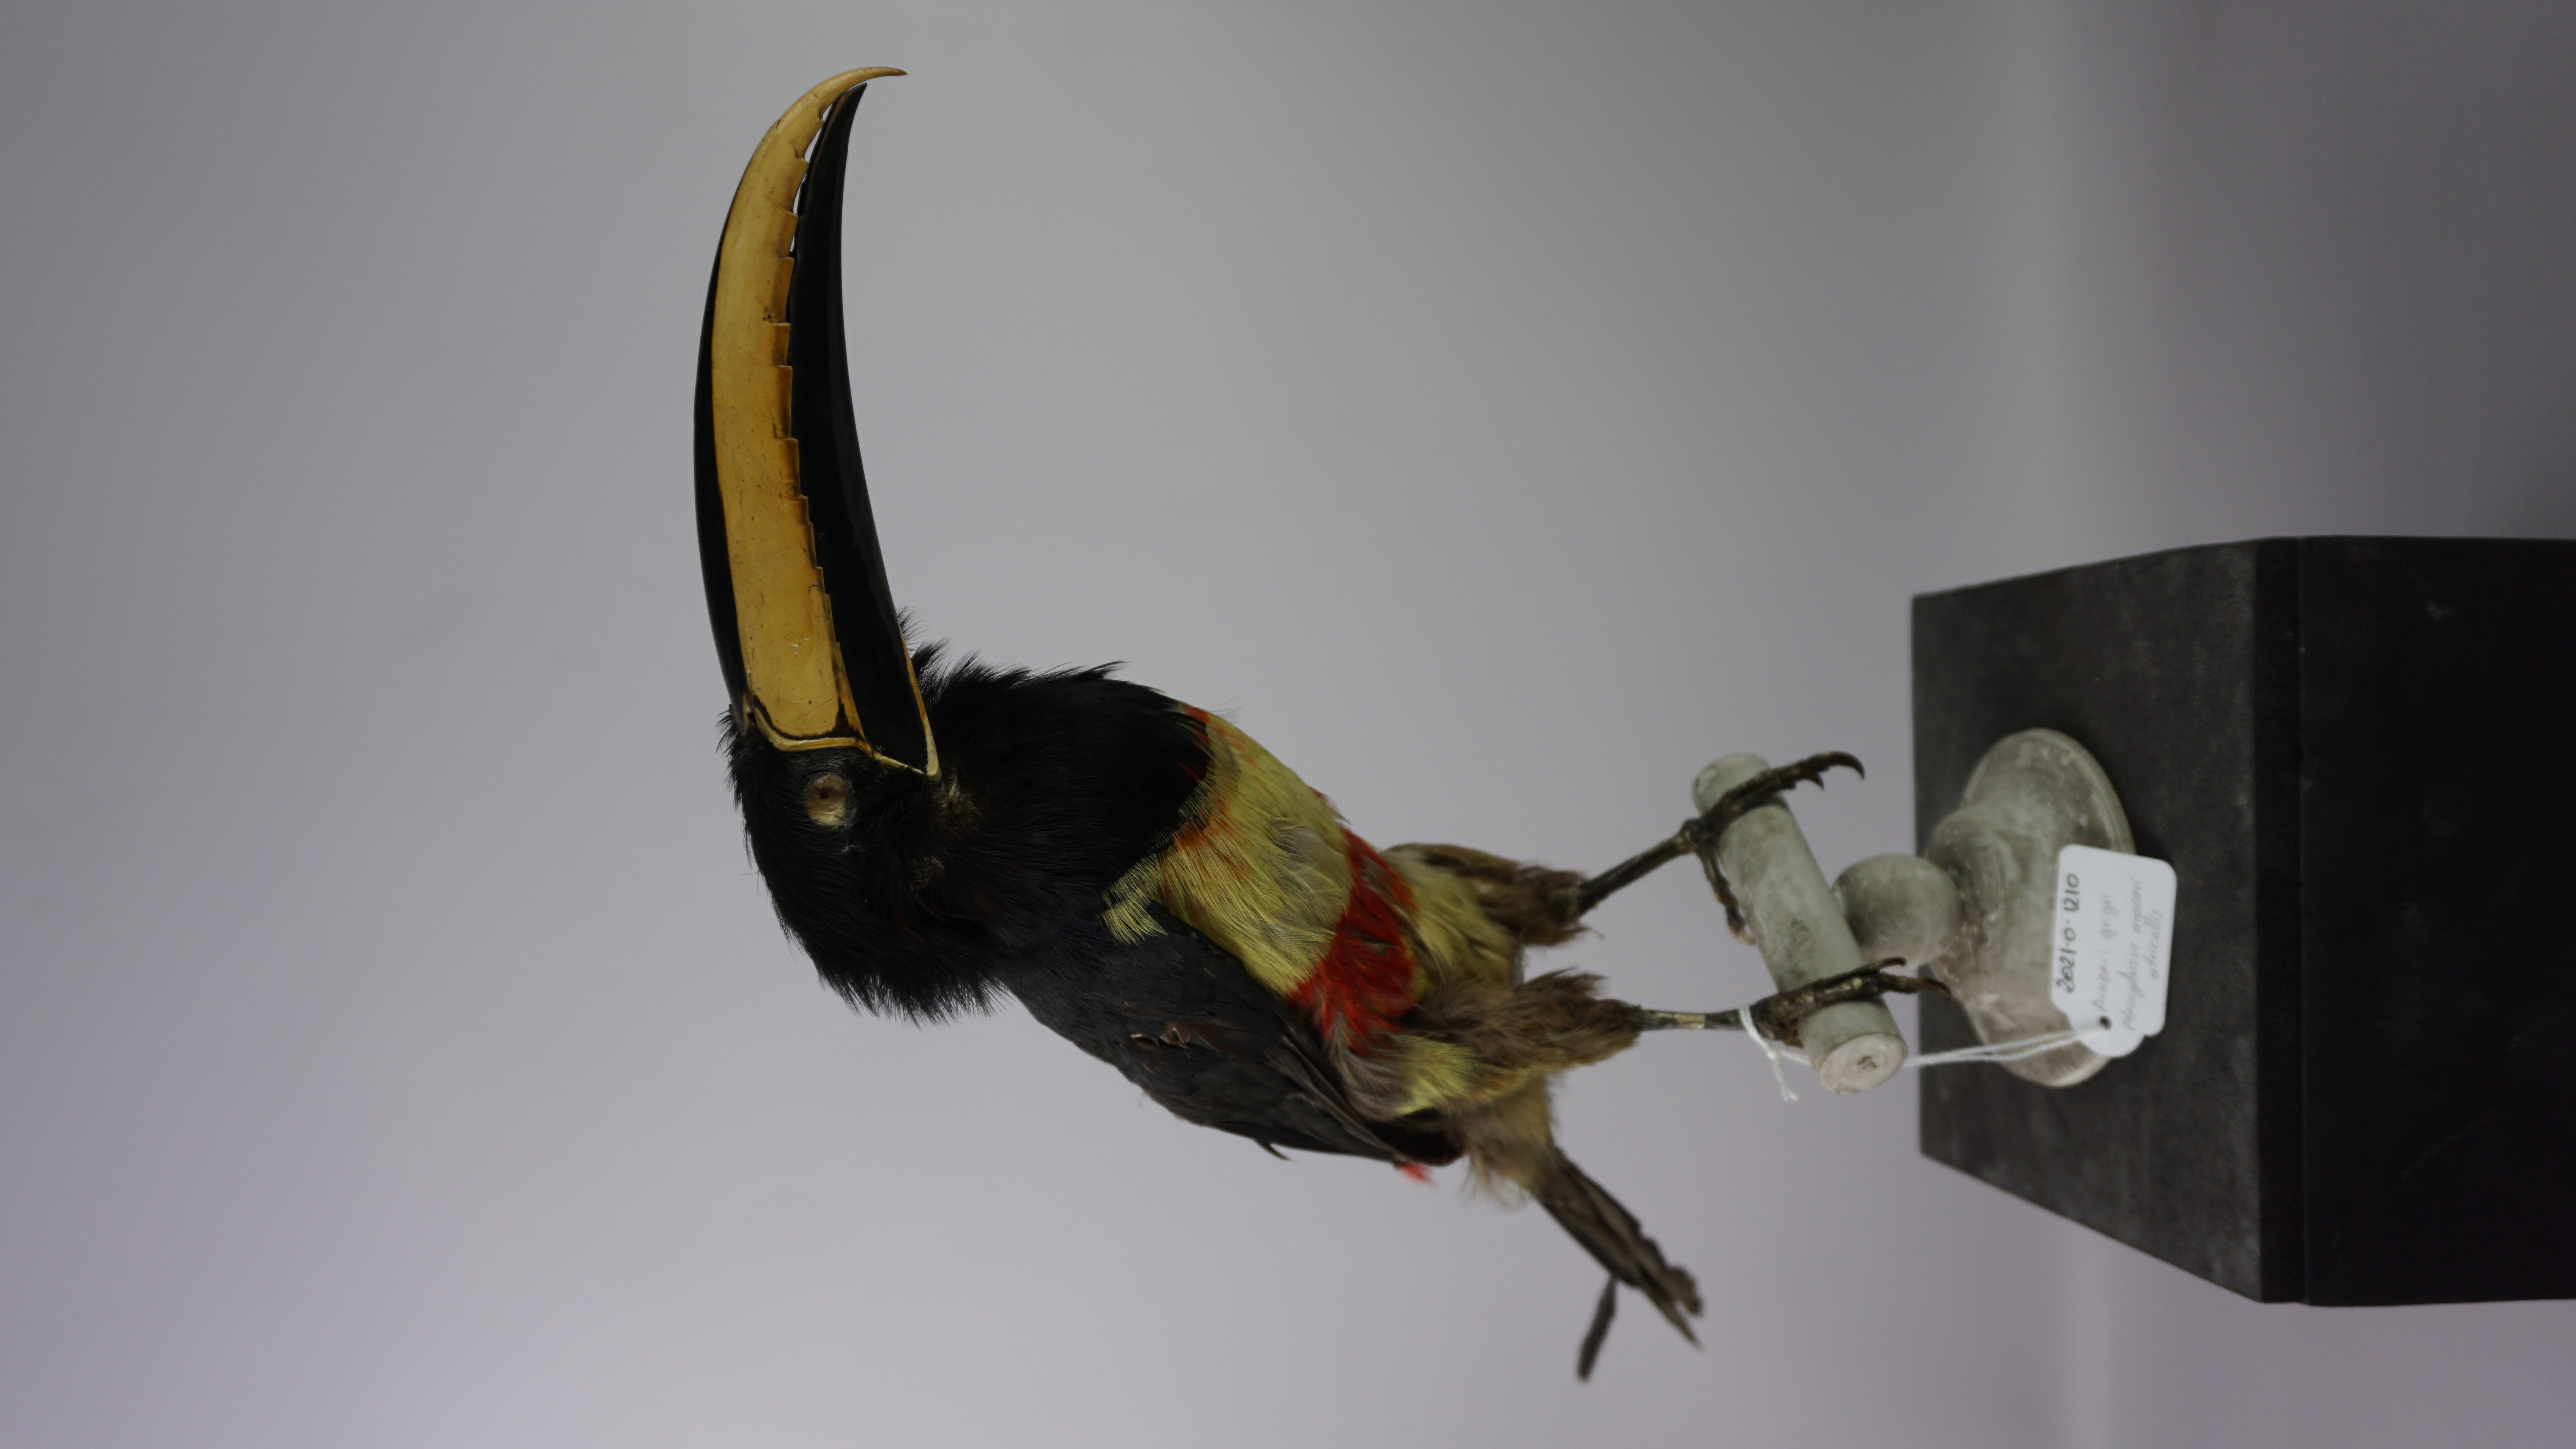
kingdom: Animalia
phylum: Chordata
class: Aves
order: Piciformes
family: Ramphastidae
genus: Pteroglossus
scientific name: Pteroglossus aracari
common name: Black-necked aracari
